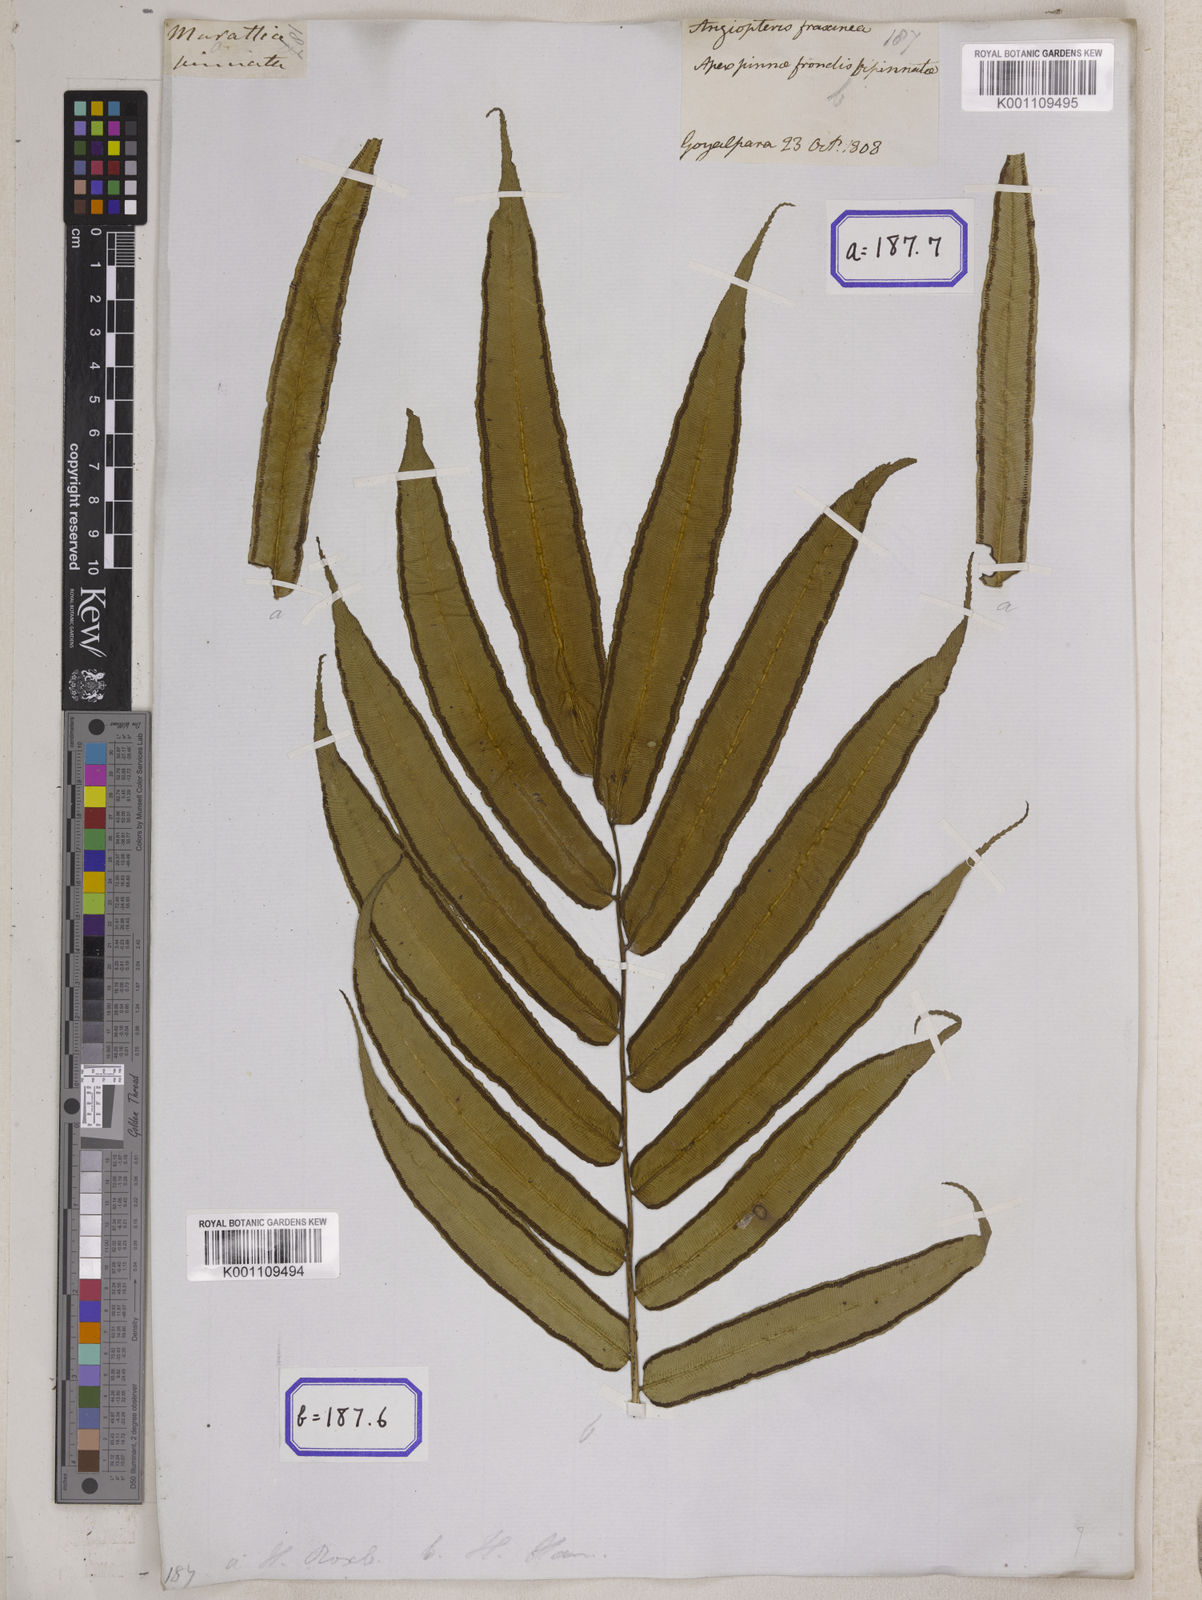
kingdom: Plantae
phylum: Tracheophyta
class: Polypodiopsida
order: Marattiales
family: Marattiaceae
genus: Angiopteris
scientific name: Angiopteris crassipes
